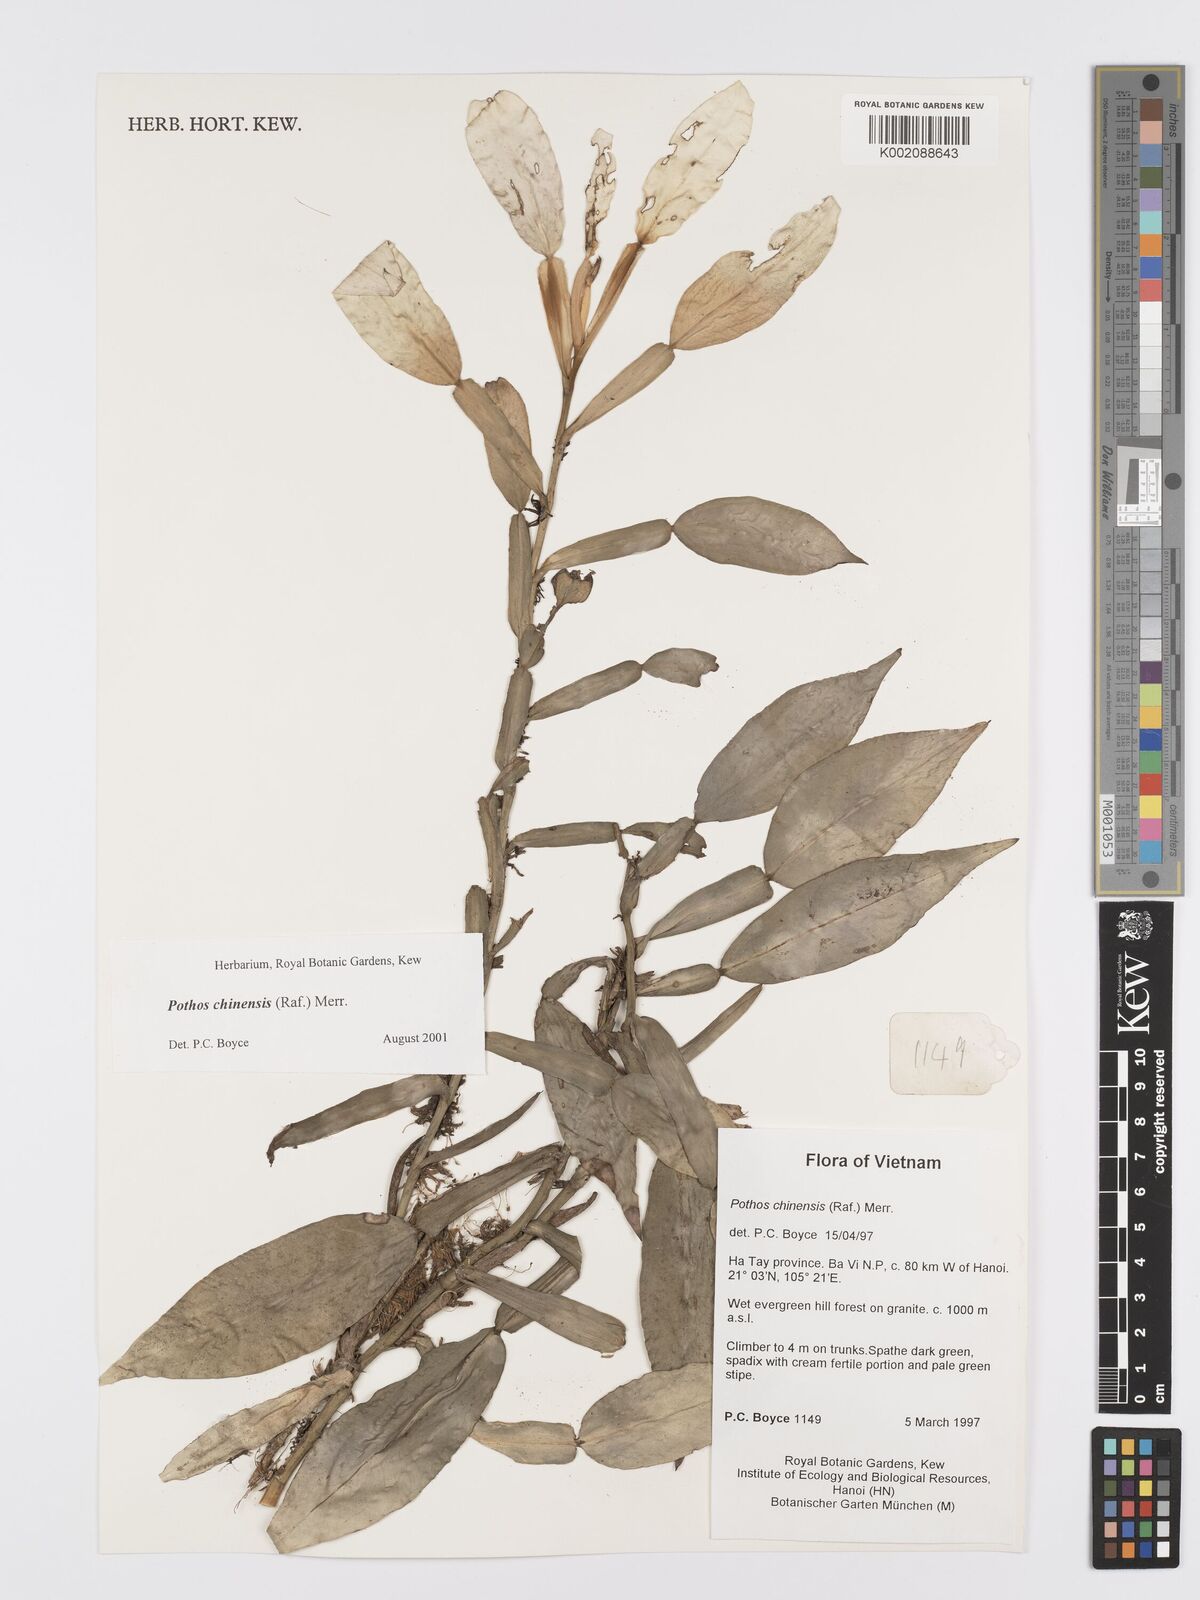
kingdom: Plantae
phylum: Tracheophyta
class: Liliopsida
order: Alismatales
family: Araceae
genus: Pothos
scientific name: Pothos chinensis
